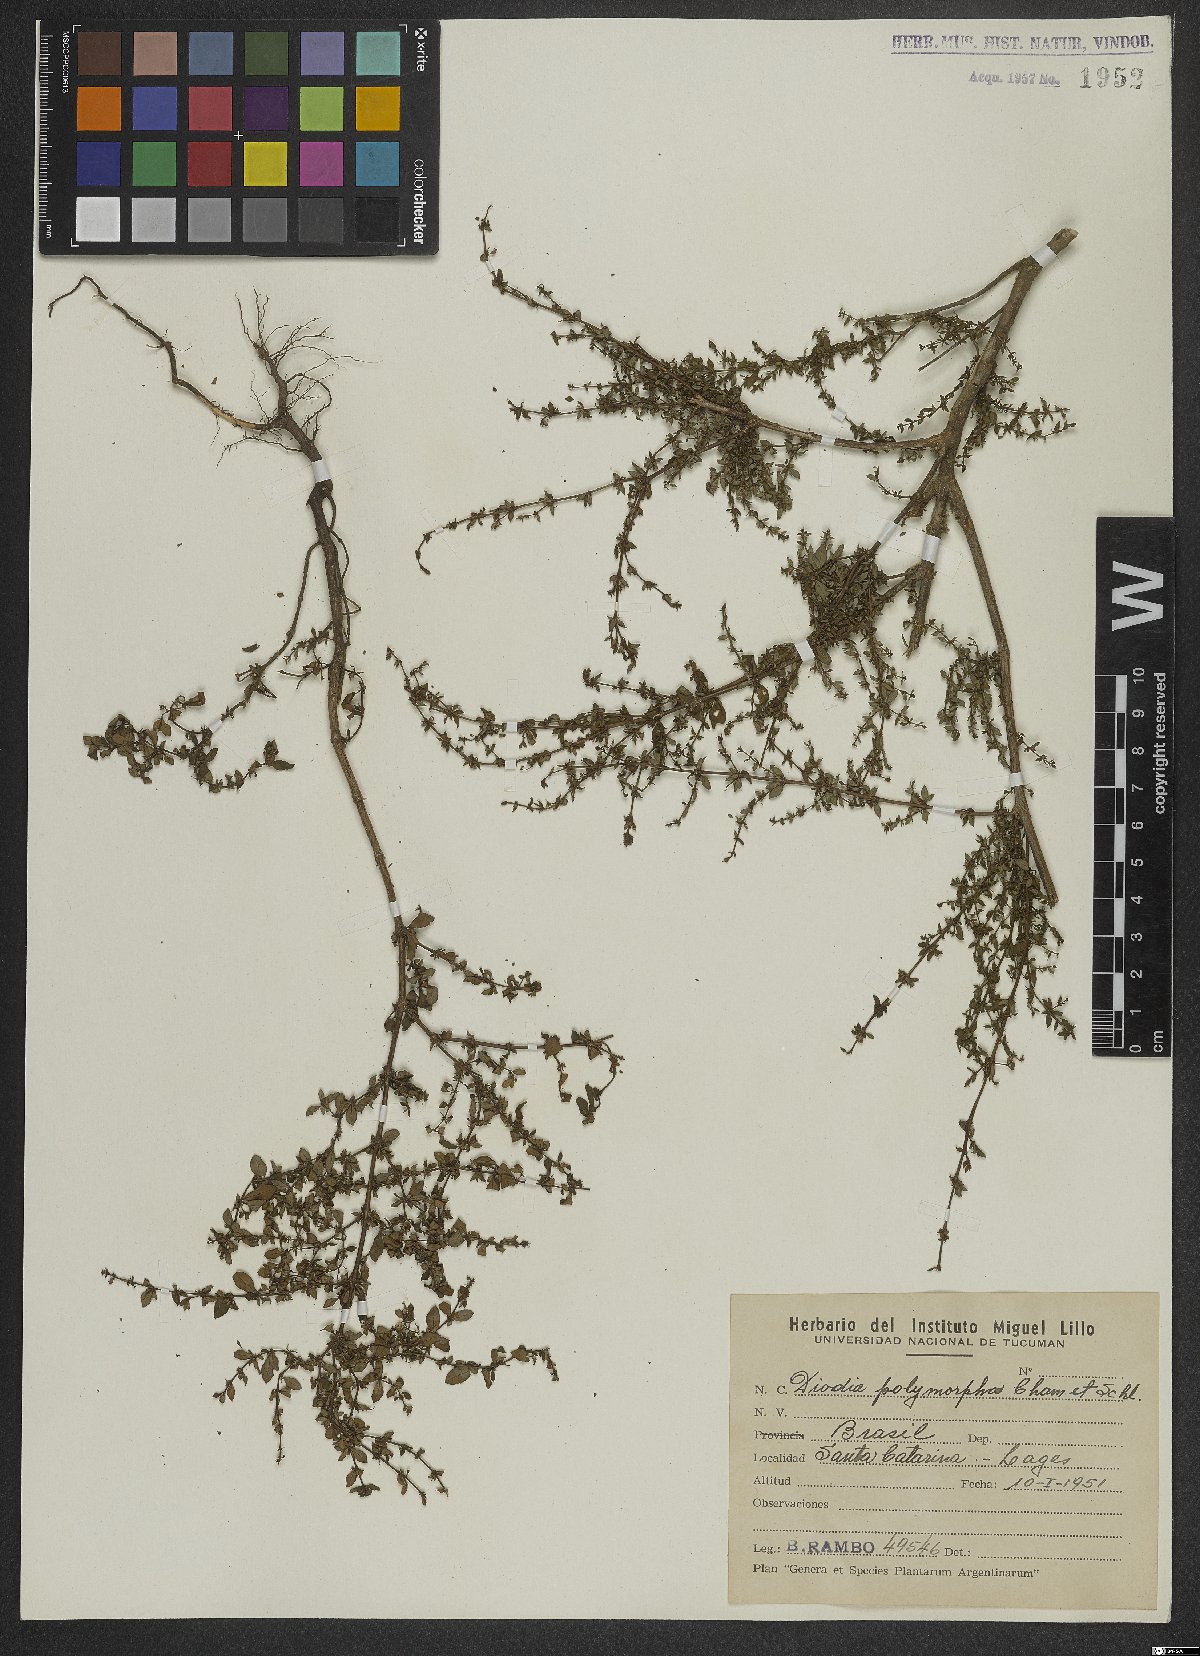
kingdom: Plantae
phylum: Tracheophyta
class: Magnoliopsida
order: Gentianales
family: Rubiaceae
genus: Galianthe
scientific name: Galianthe brasiliensis
